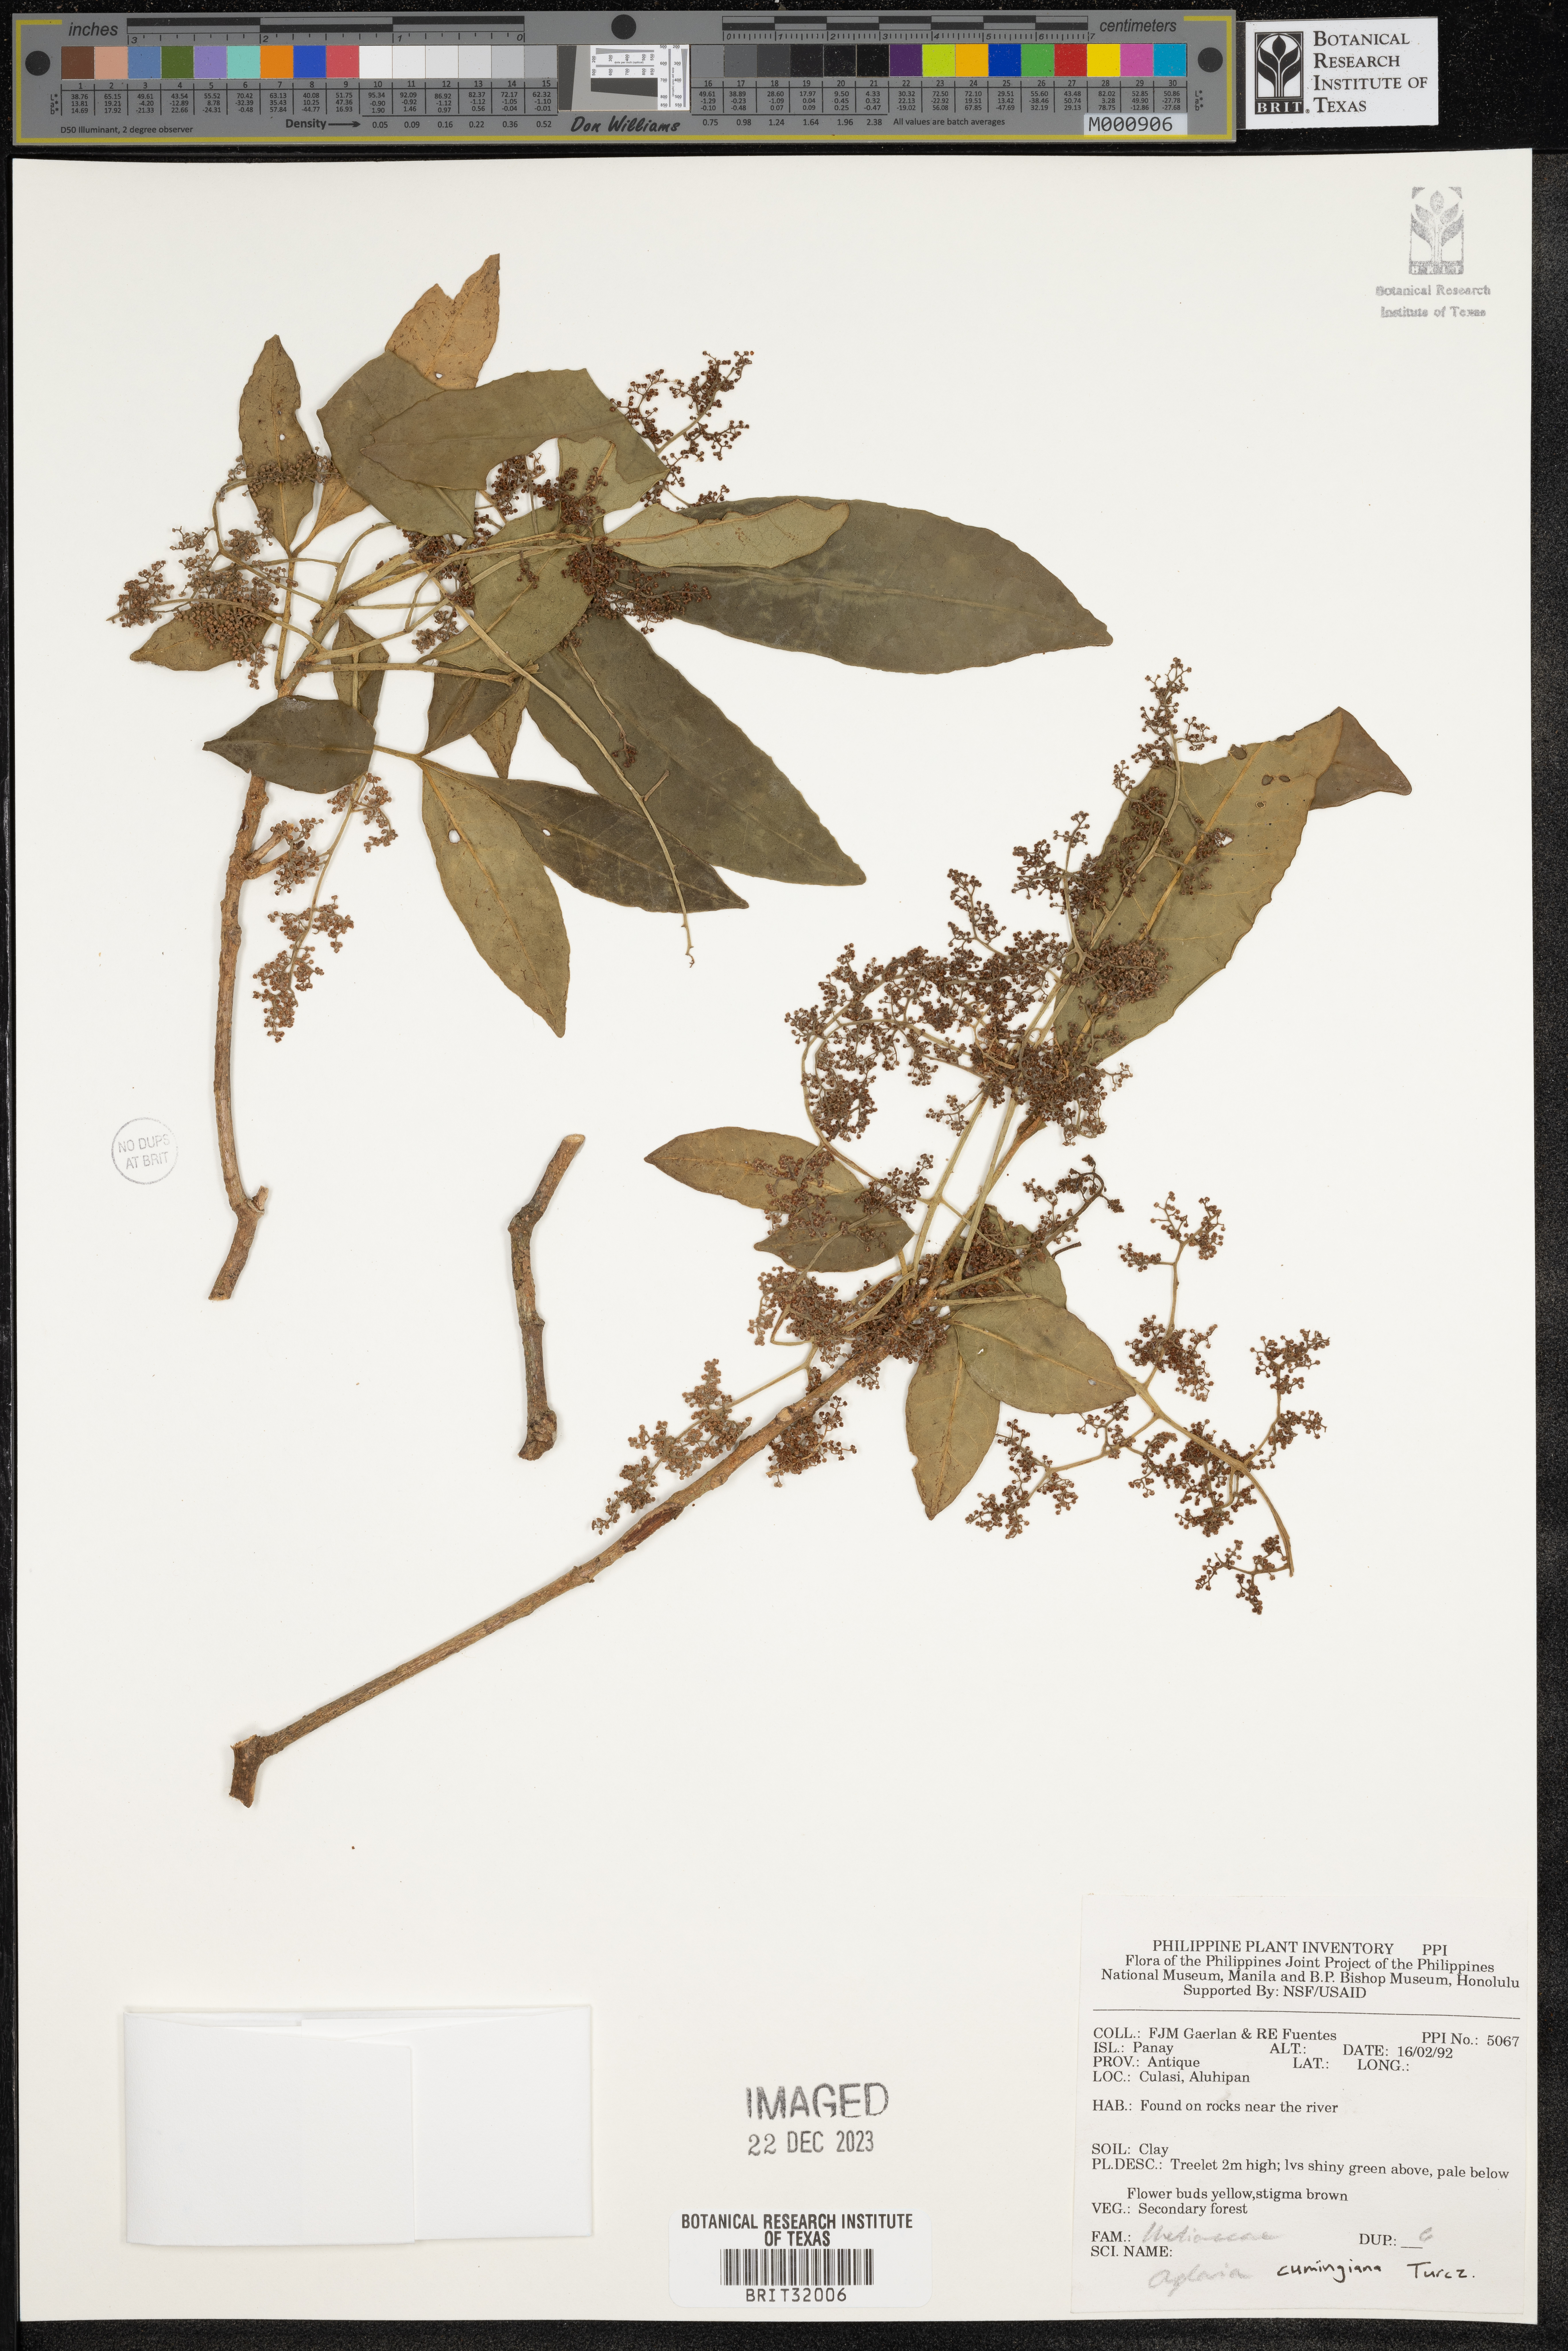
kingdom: Plantae
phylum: Tracheophyta
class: Magnoliopsida
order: Sapindales
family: Meliaceae
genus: Aglaia
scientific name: Aglaia
